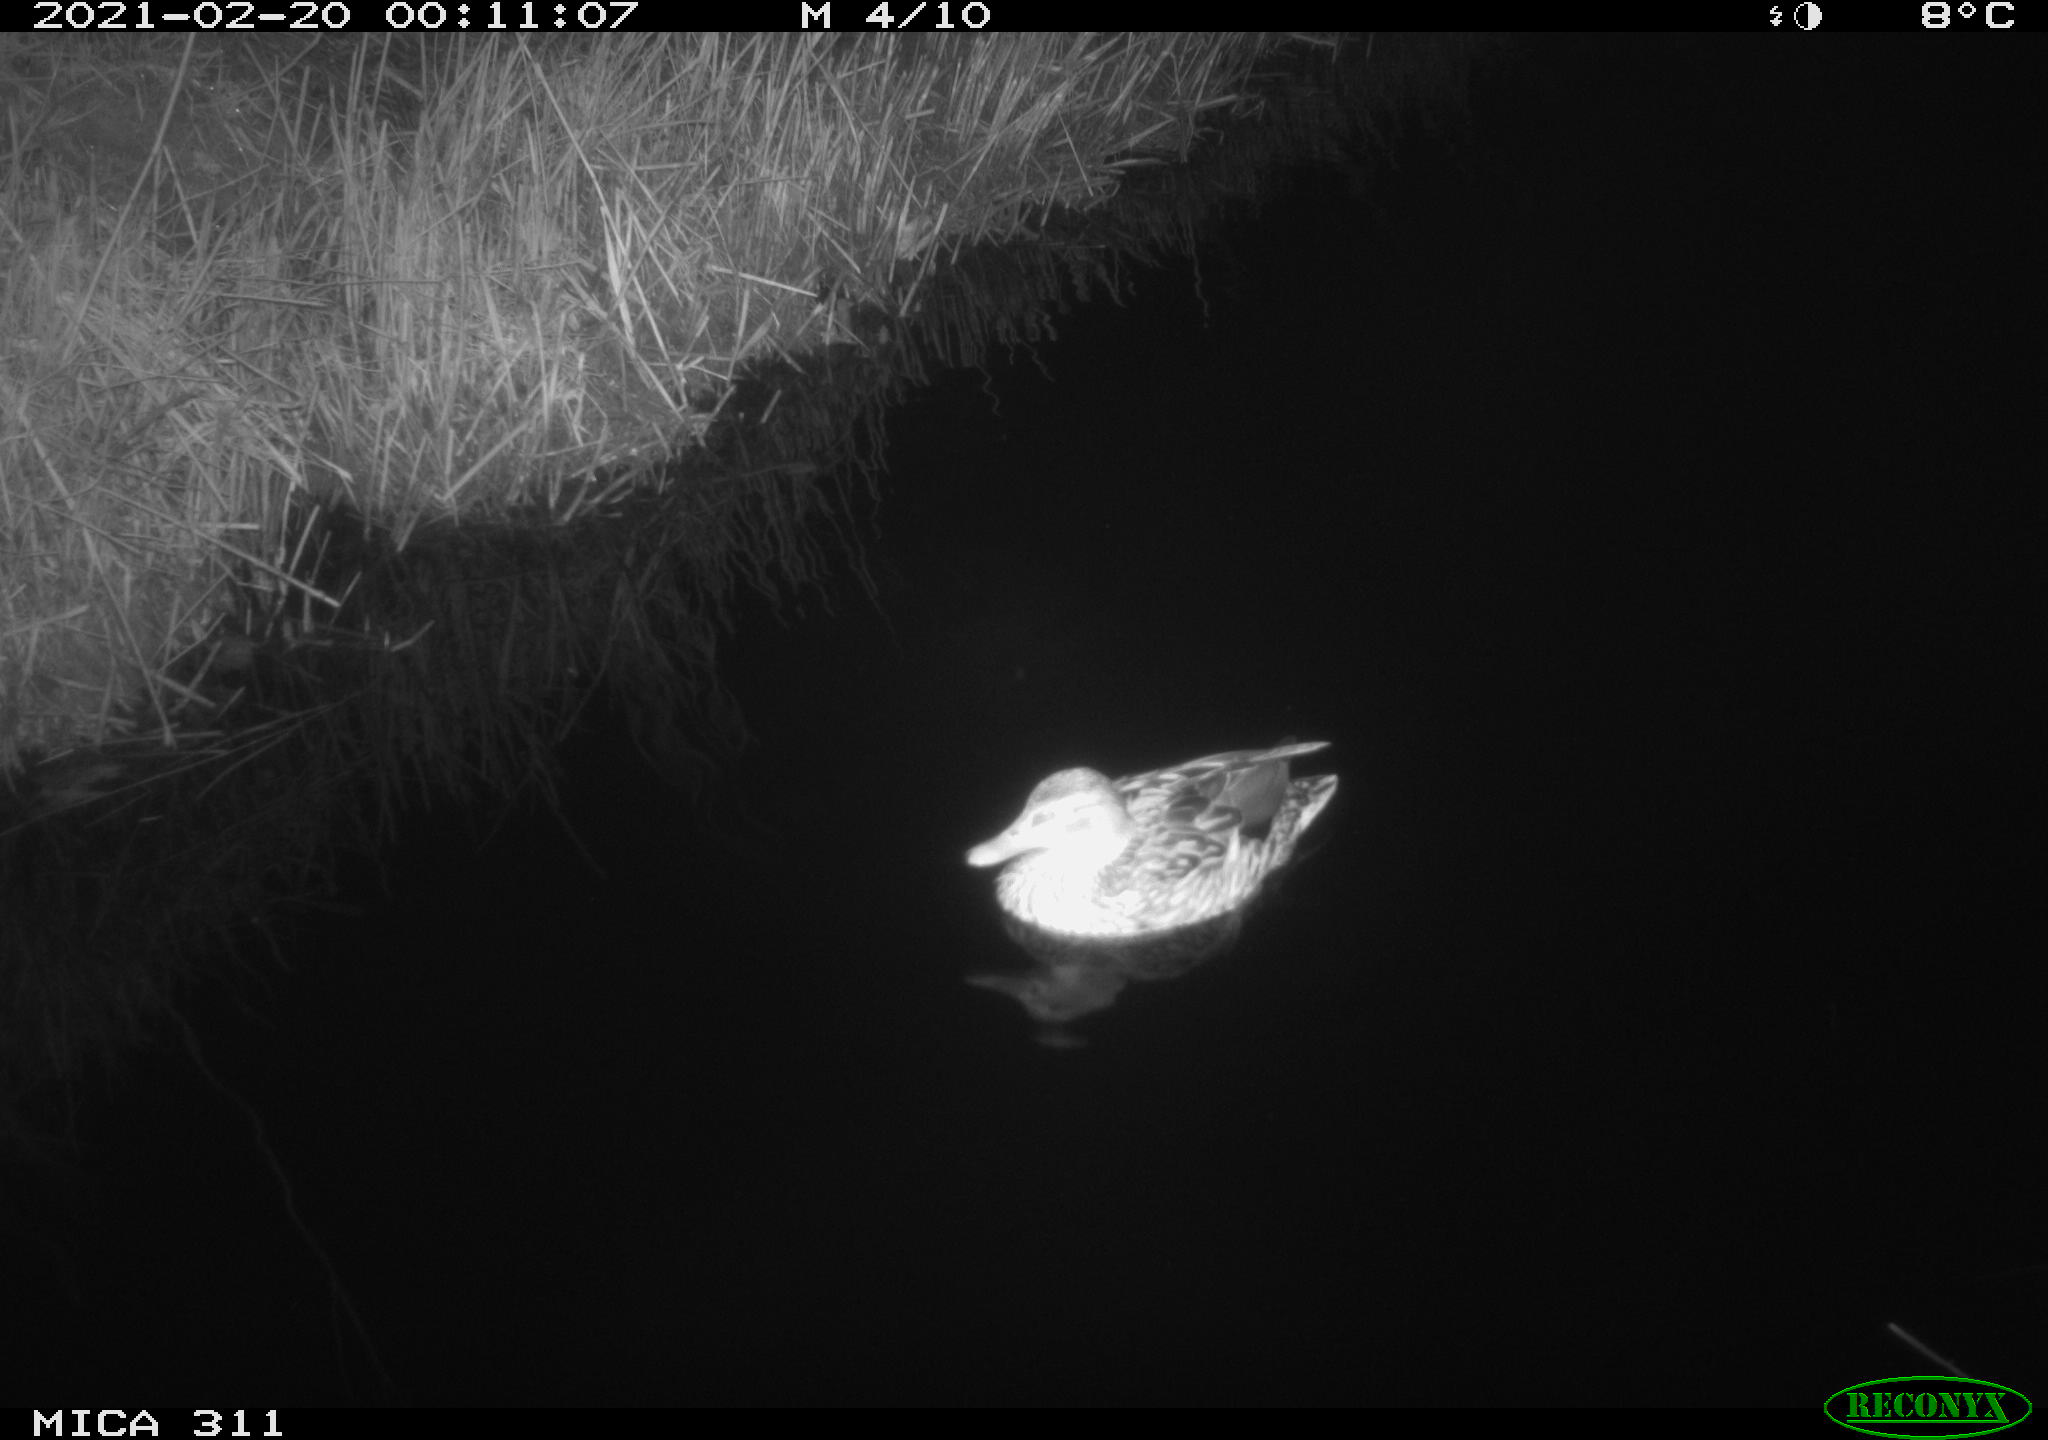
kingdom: Animalia
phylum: Chordata
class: Aves
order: Anseriformes
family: Anatidae
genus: Anas
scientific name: Anas
